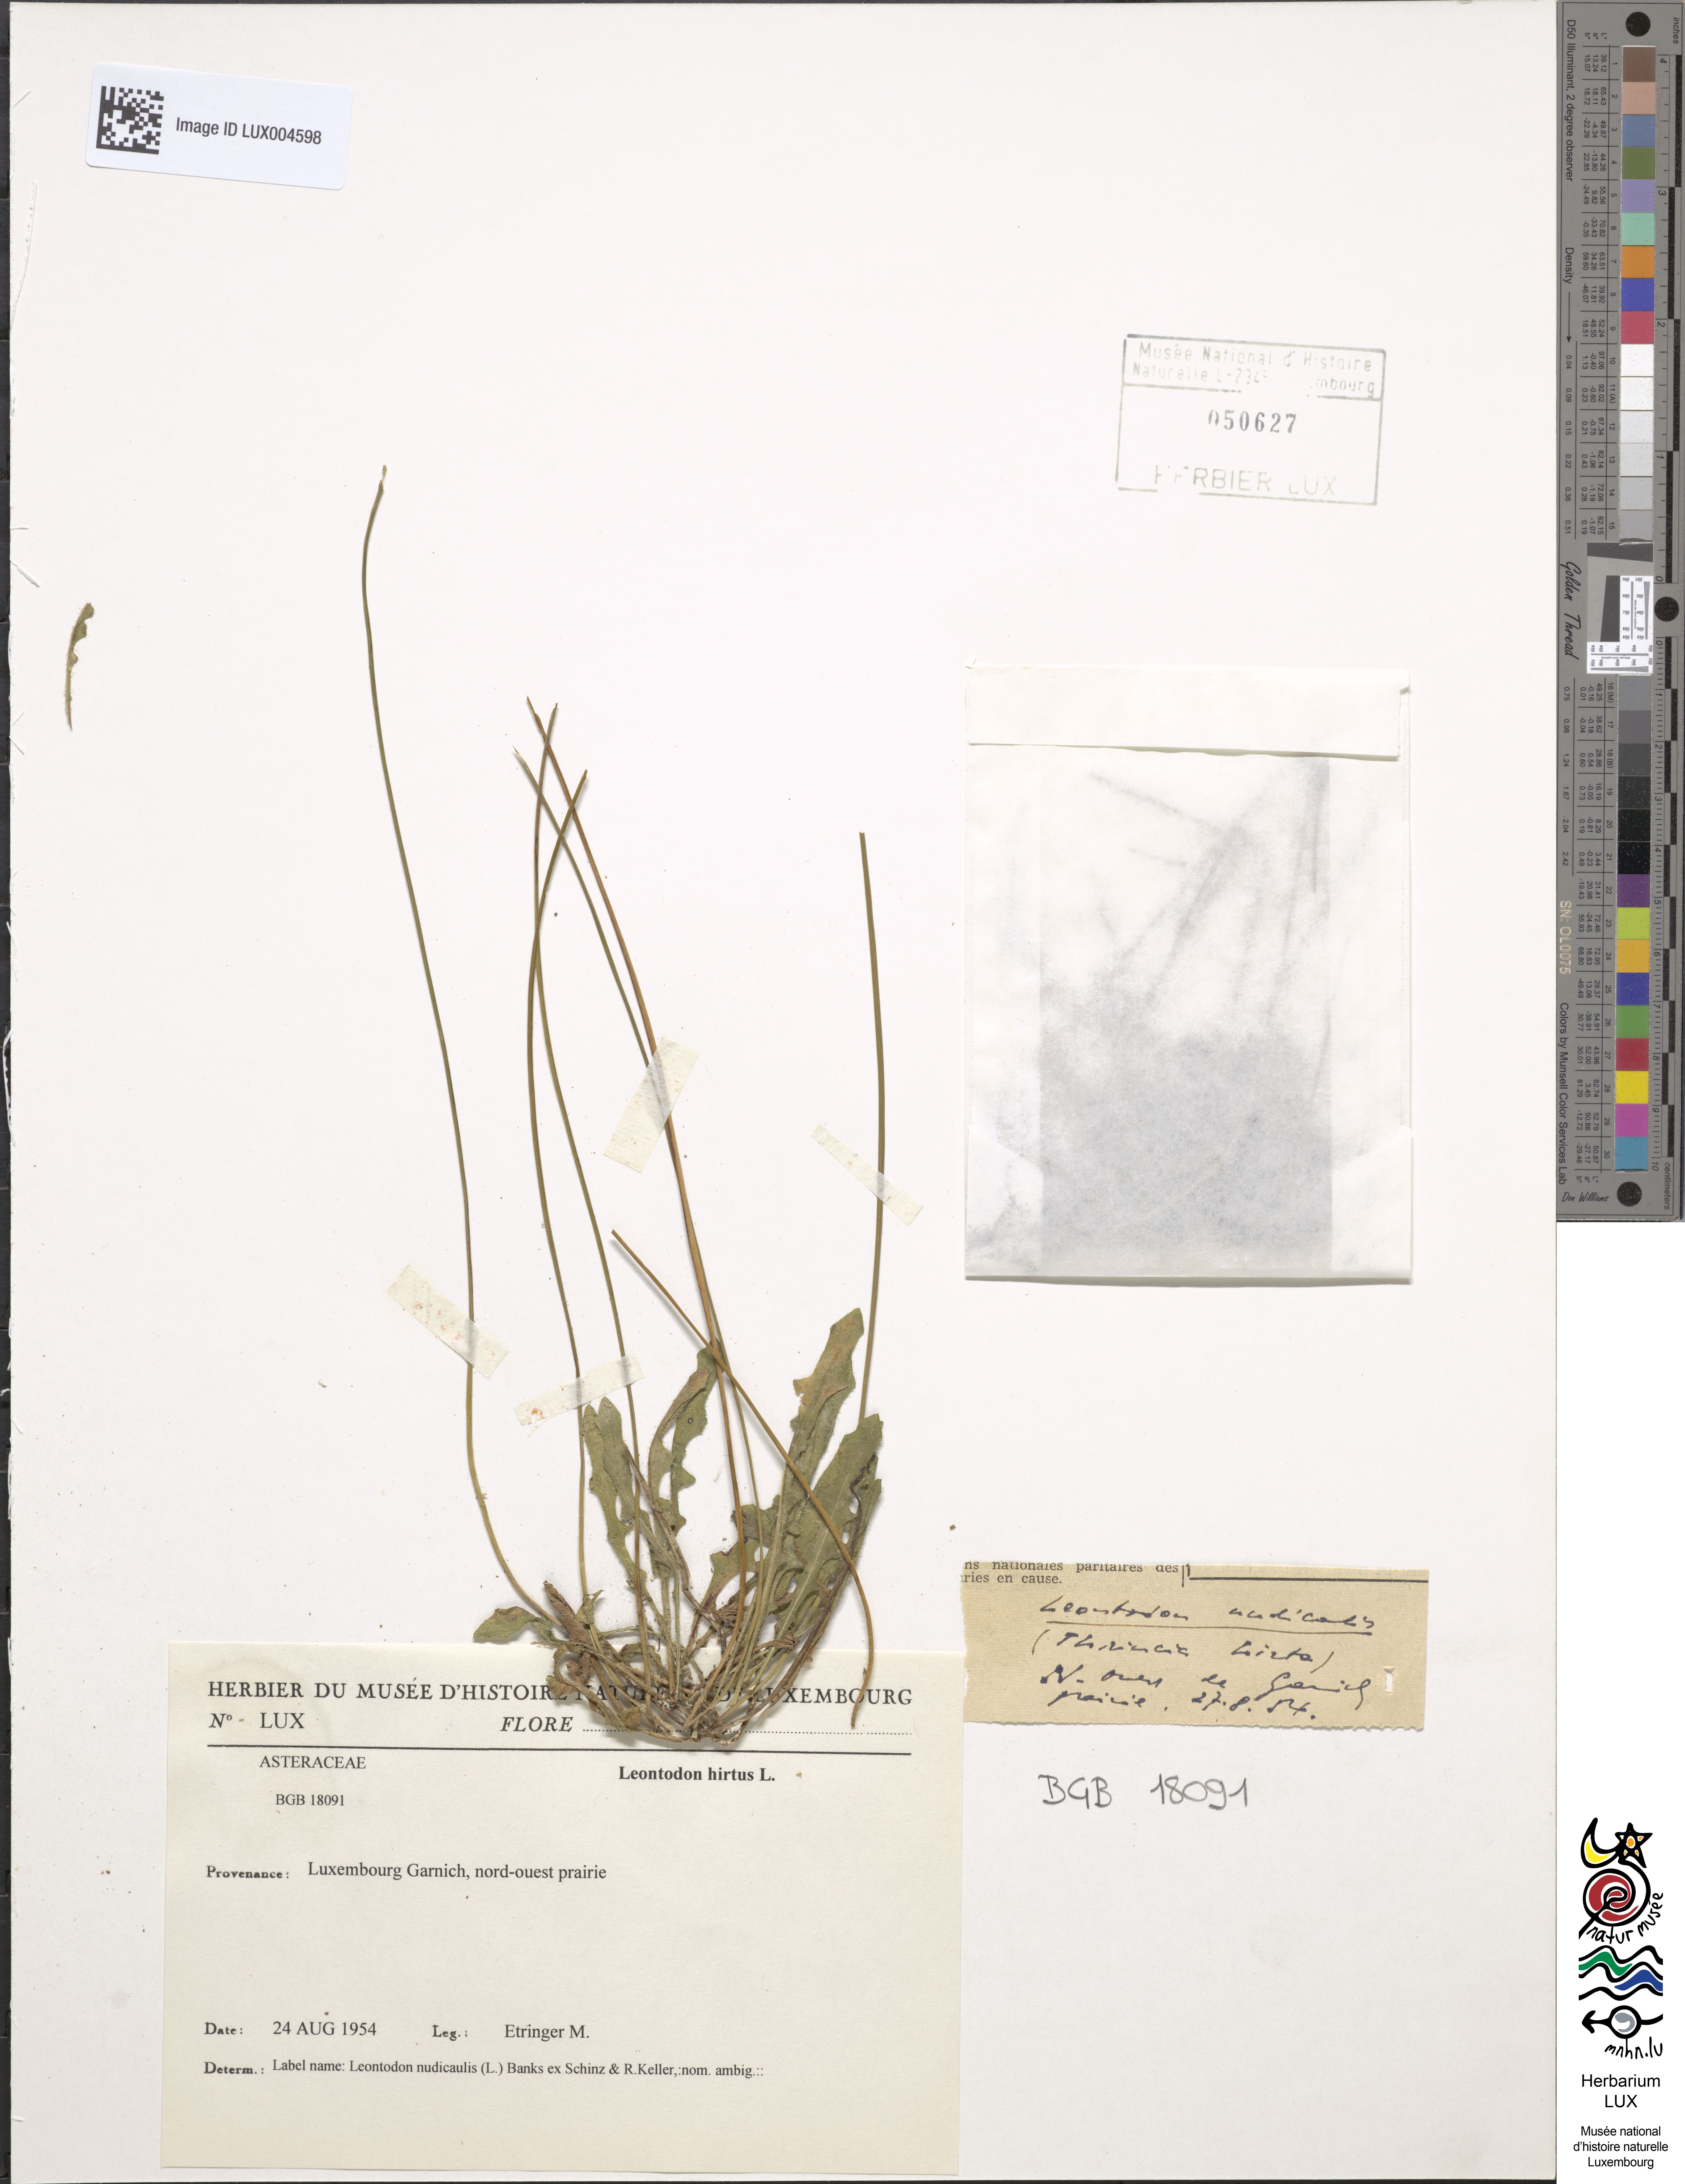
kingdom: Plantae
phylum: Tracheophyta
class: Magnoliopsida
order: Asterales
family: Asteraceae
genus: Leontodon
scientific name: Leontodon hirtus
